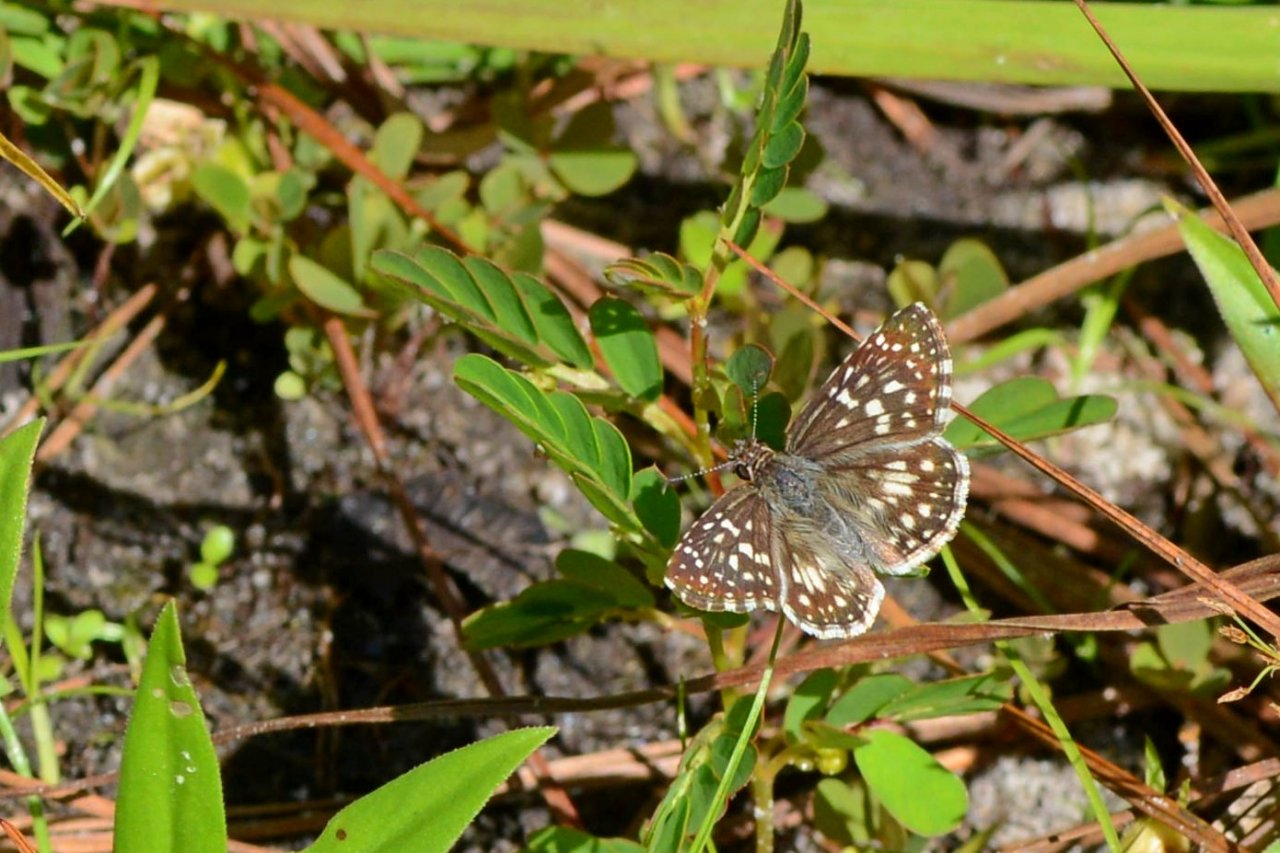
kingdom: Animalia
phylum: Arthropoda
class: Insecta
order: Lepidoptera
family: Hesperiidae
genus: Pyrgus
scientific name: Pyrgus oileus
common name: Tropical Checkered-Skipper
